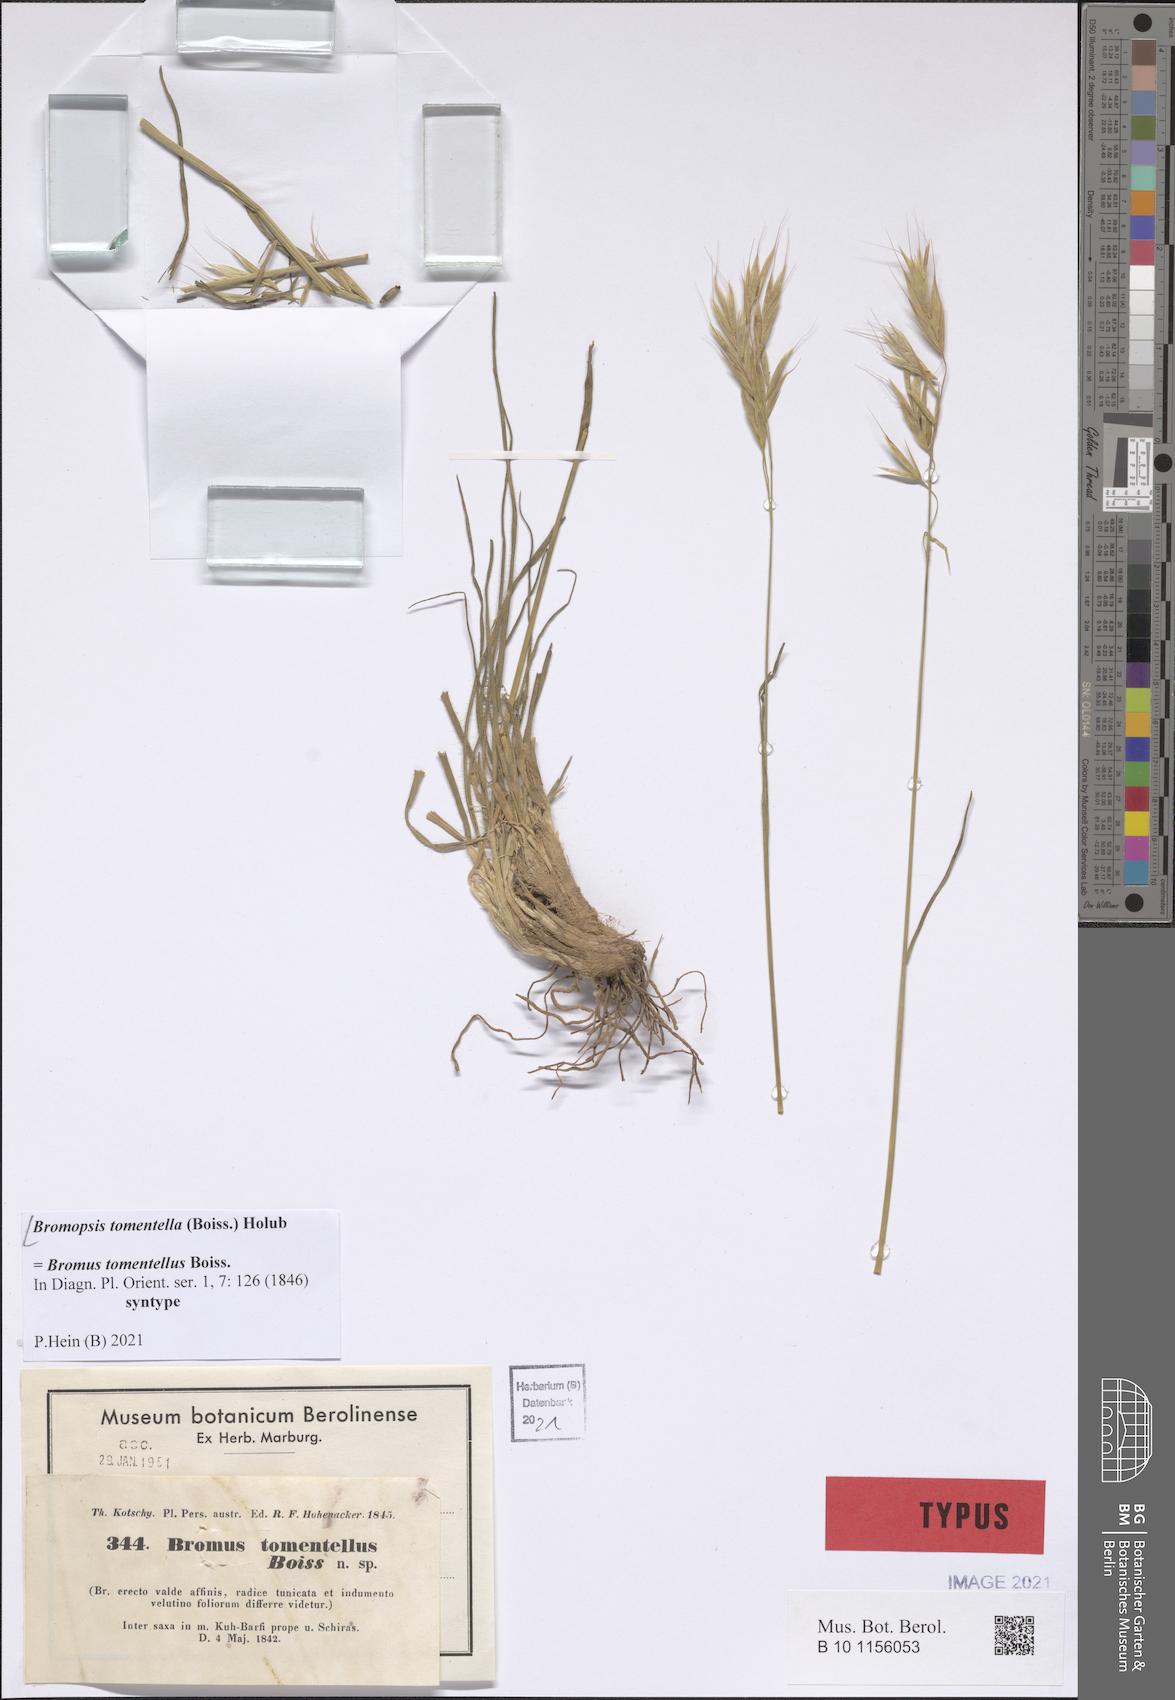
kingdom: Plantae
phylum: Tracheophyta
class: Liliopsida
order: Poales
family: Poaceae
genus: Bromus
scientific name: Bromus tomentellus
